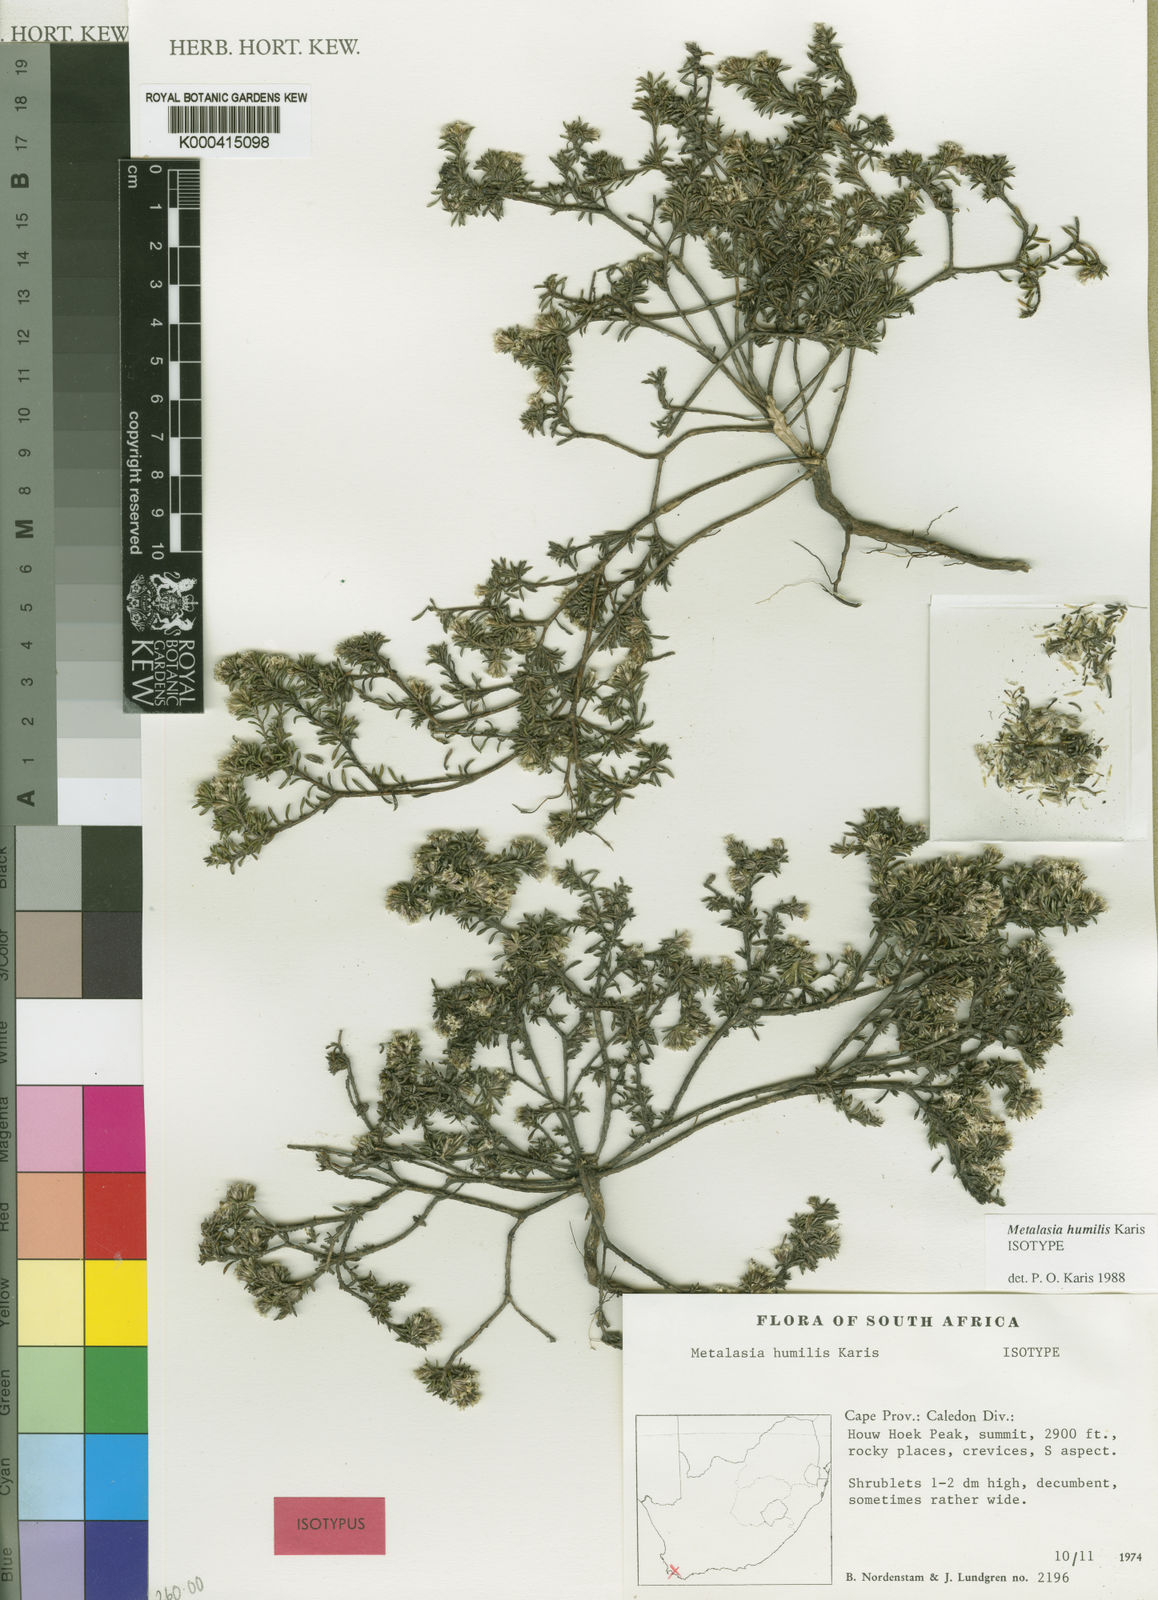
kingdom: Plantae
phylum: Tracheophyta
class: Magnoliopsida
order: Asterales
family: Asteraceae
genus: Metalasia
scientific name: Metalasia humilis
